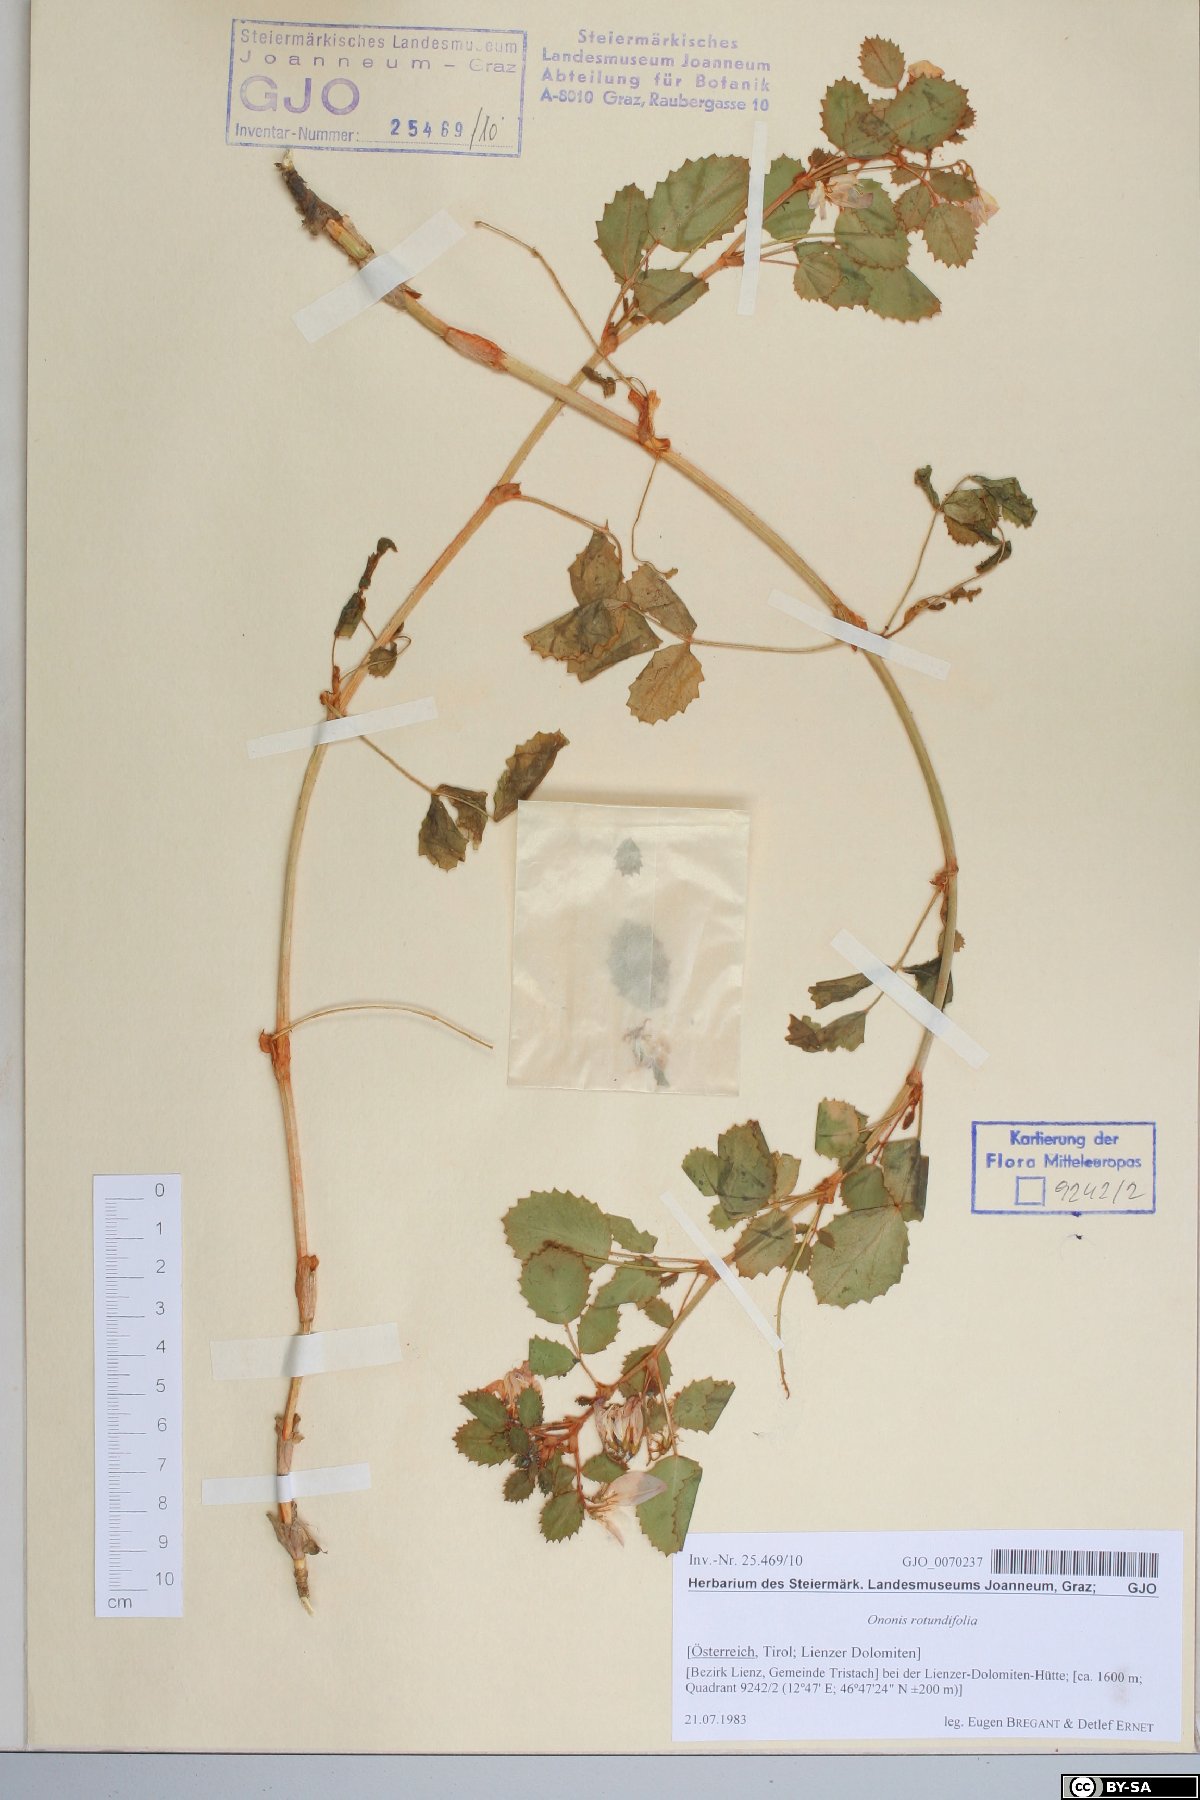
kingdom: Plantae
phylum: Tracheophyta
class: Magnoliopsida
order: Fabales
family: Fabaceae
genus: Ononis
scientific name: Ononis rotundifolia
